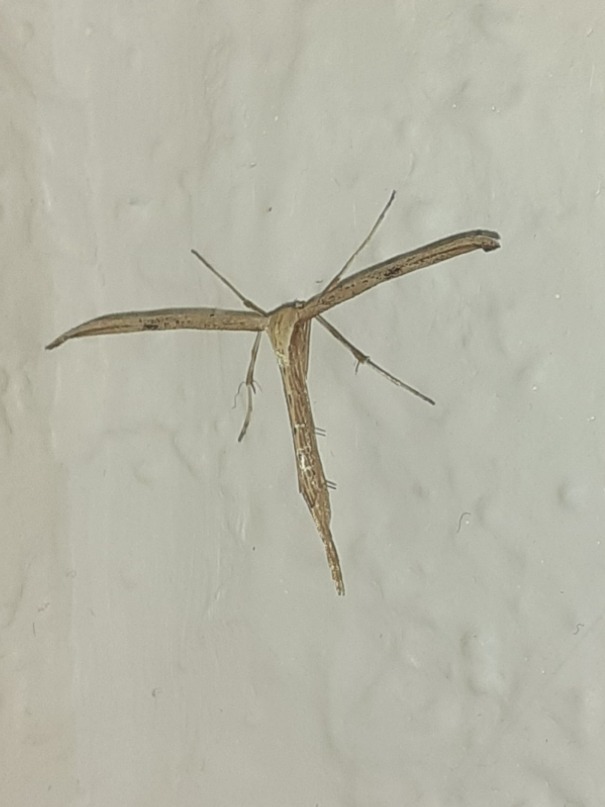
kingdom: Animalia
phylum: Arthropoda
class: Insecta
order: Lepidoptera
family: Pterophoridae
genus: Emmelina
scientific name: Emmelina monodactyla
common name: Snerlefjermøl
